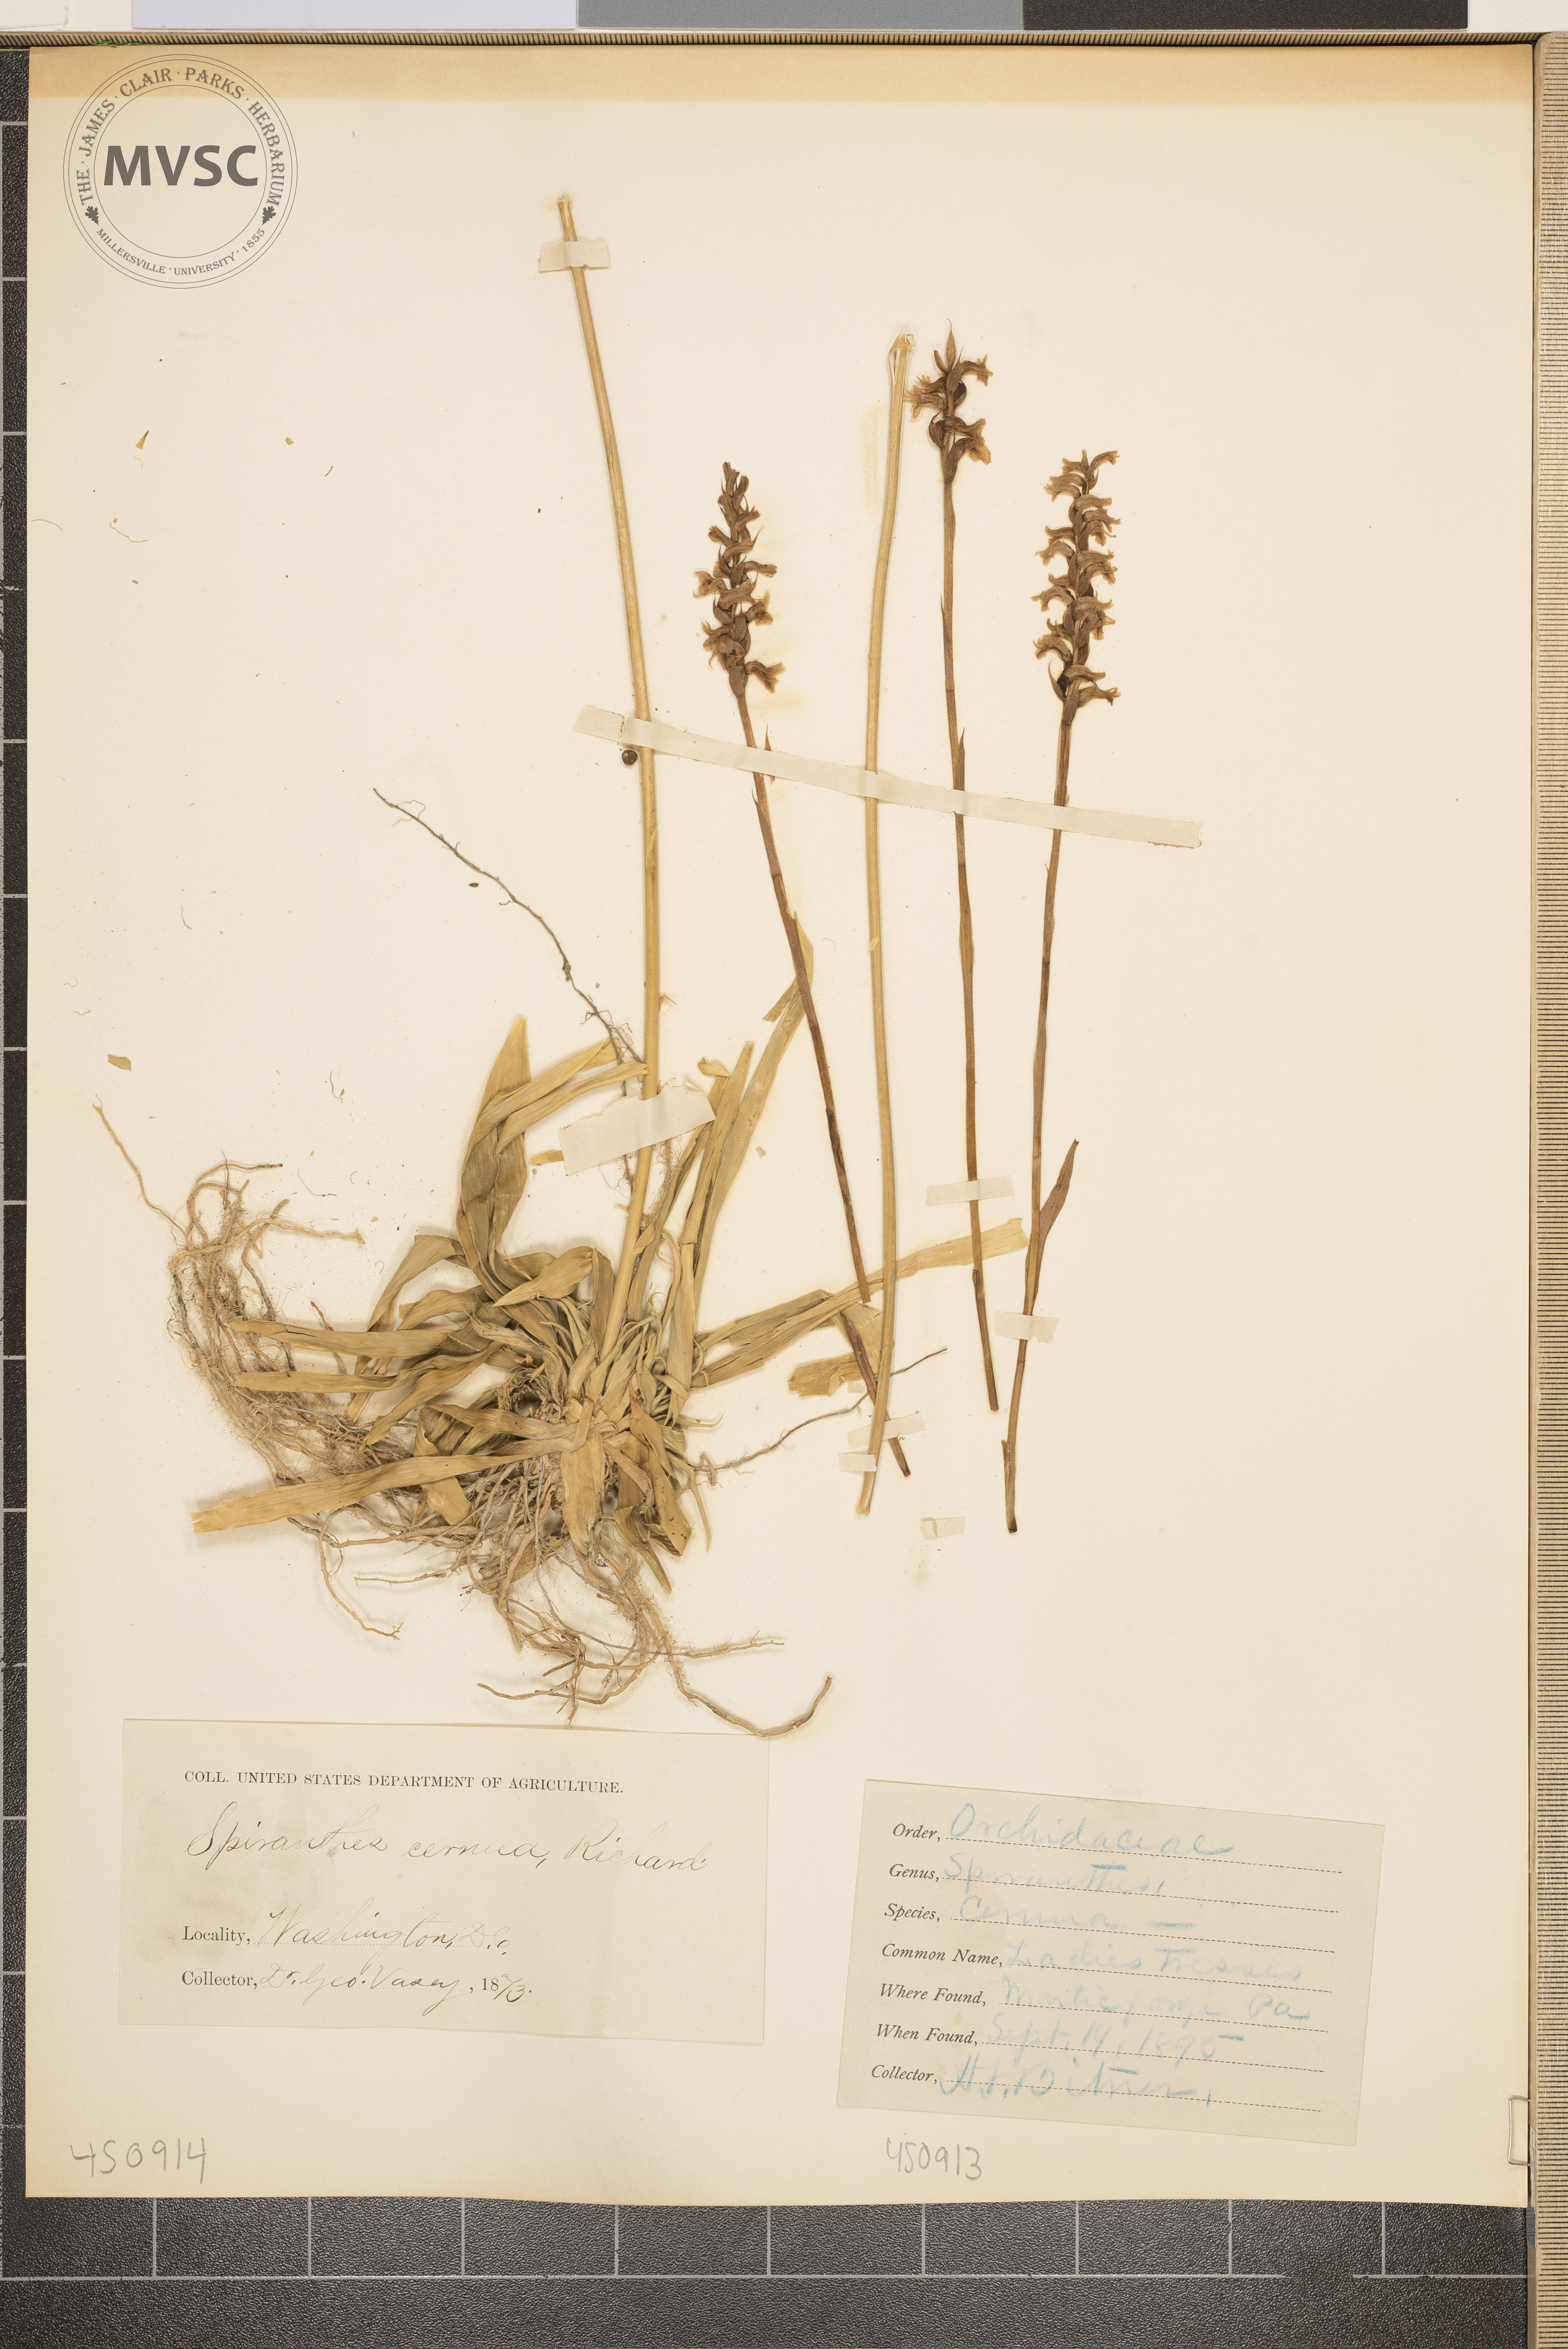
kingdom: Plantae
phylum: Tracheophyta
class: Liliopsida
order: Asparagales
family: Orchidaceae
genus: Spiranthes
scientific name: Spiranthes cernua
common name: Dropping ladies'-tresses
